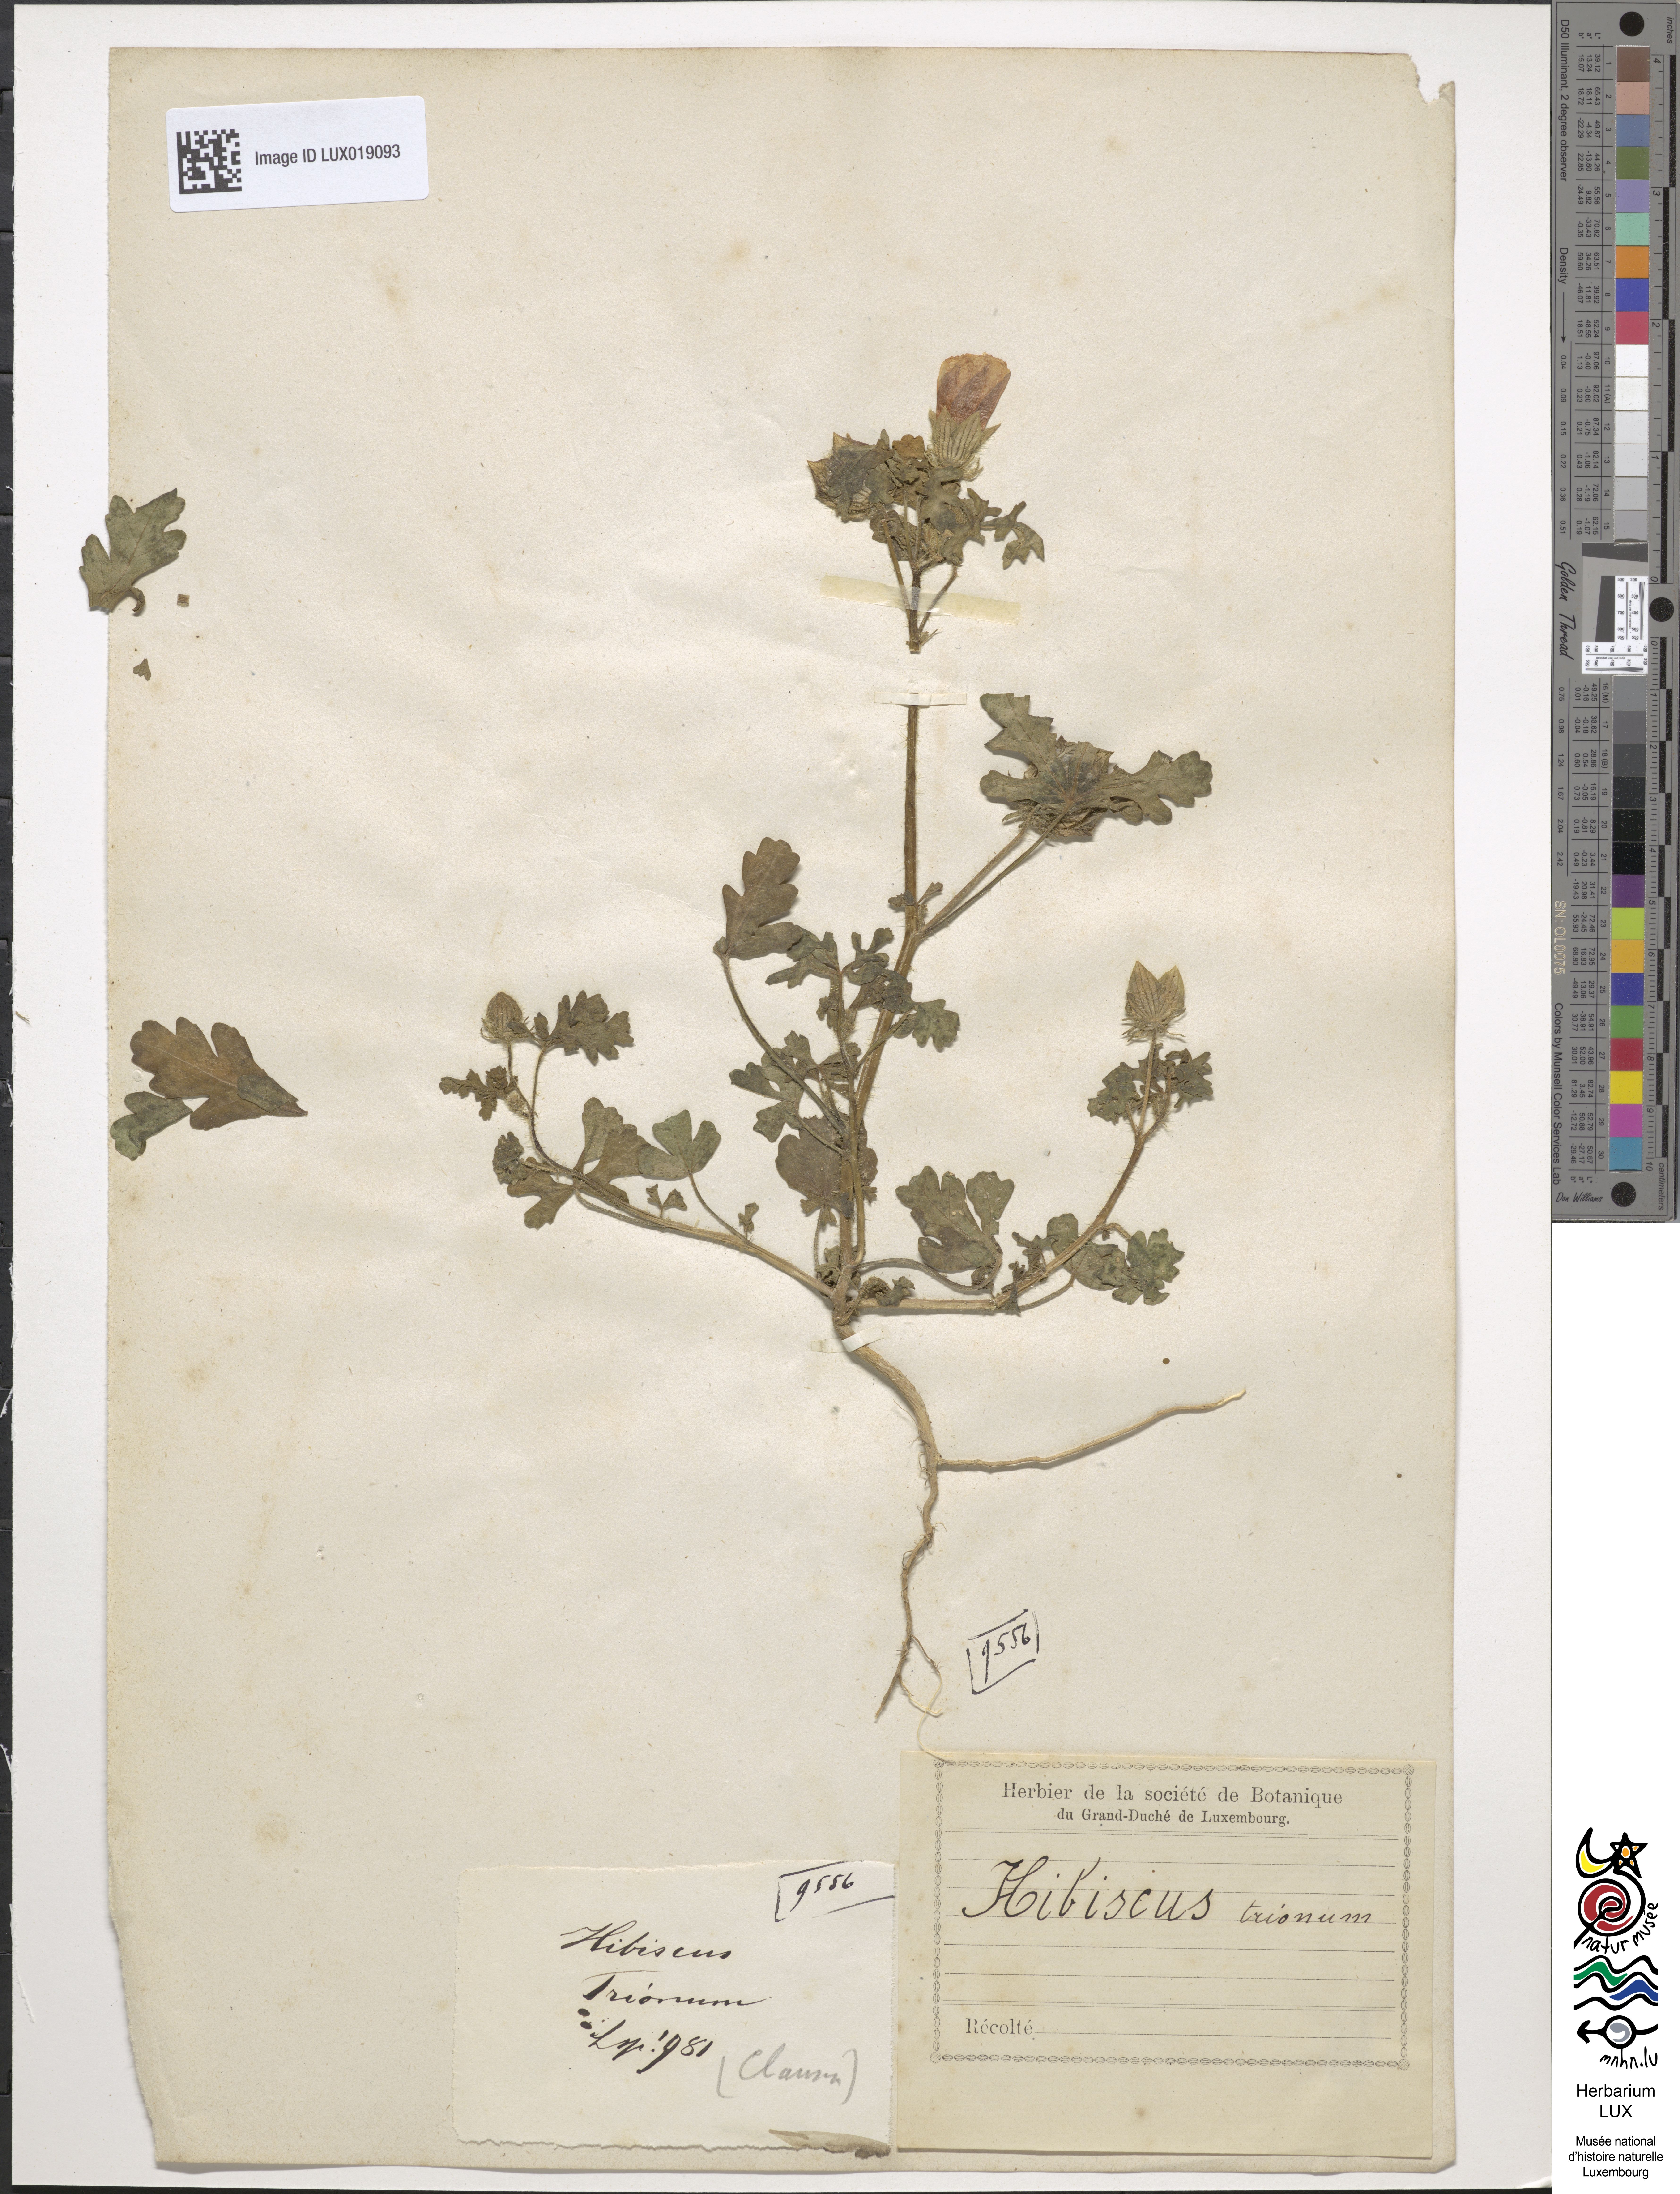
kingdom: Plantae
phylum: Tracheophyta
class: Magnoliopsida
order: Malvales
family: Malvaceae
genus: Hibiscus
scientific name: Hibiscus trionum
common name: Bladder ketmia
